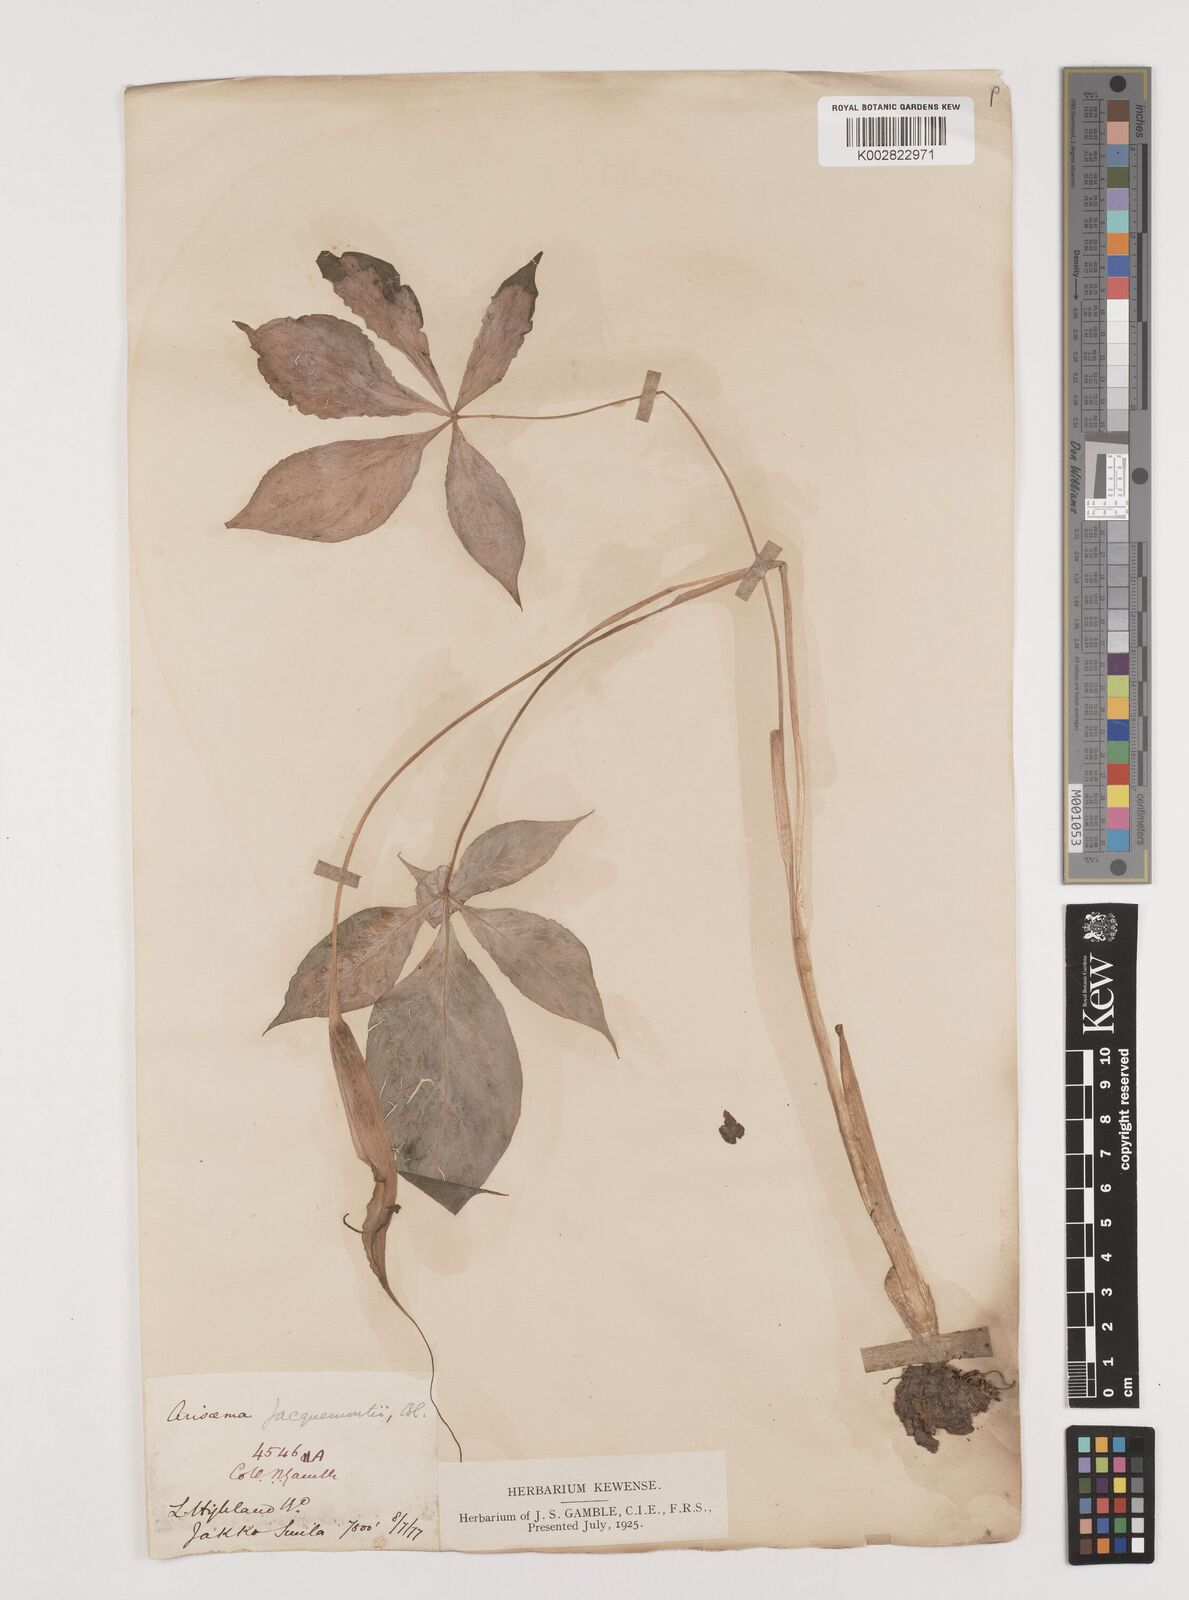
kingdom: Plantae
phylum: Tracheophyta
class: Liliopsida
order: Alismatales
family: Araceae
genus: Arisaema
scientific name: Arisaema jacquemontii
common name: Jacquemont's cobra-lily
